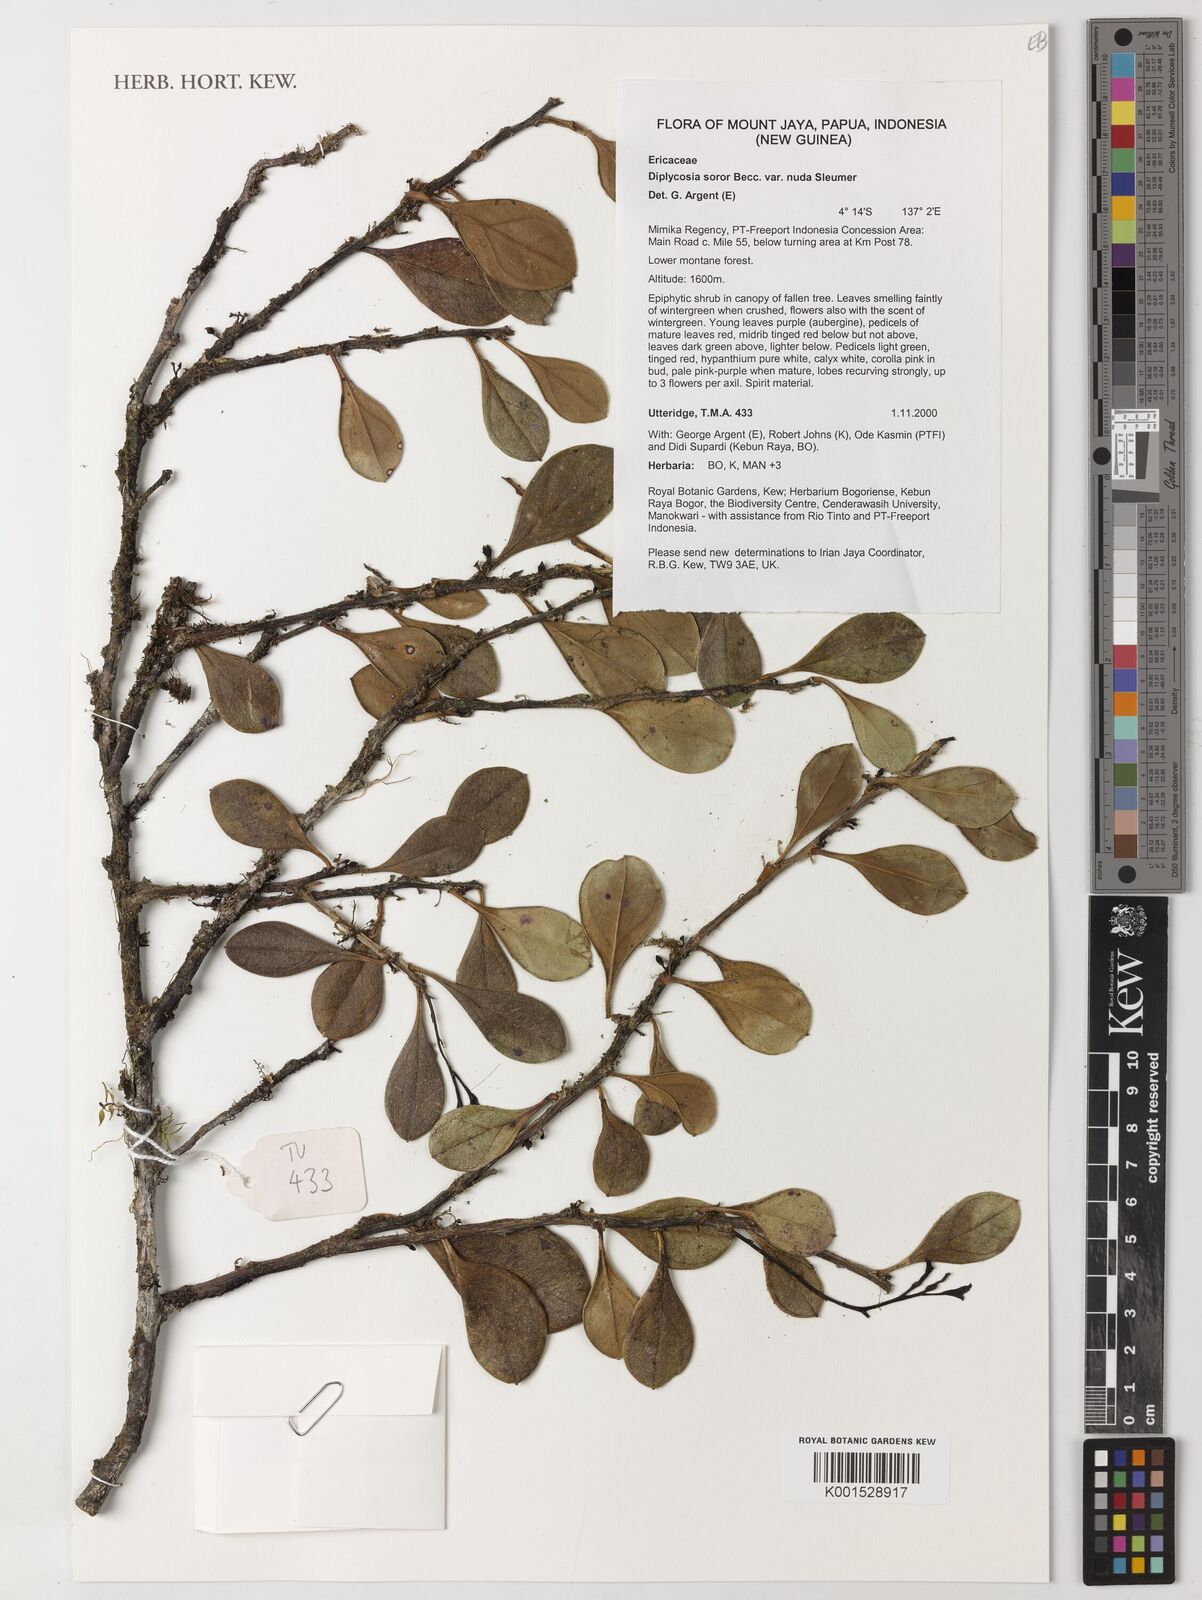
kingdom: Plantae
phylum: Tracheophyta
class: Magnoliopsida
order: Ericales
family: Ericaceae
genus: Gaultheria
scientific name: Gaultheria soror
